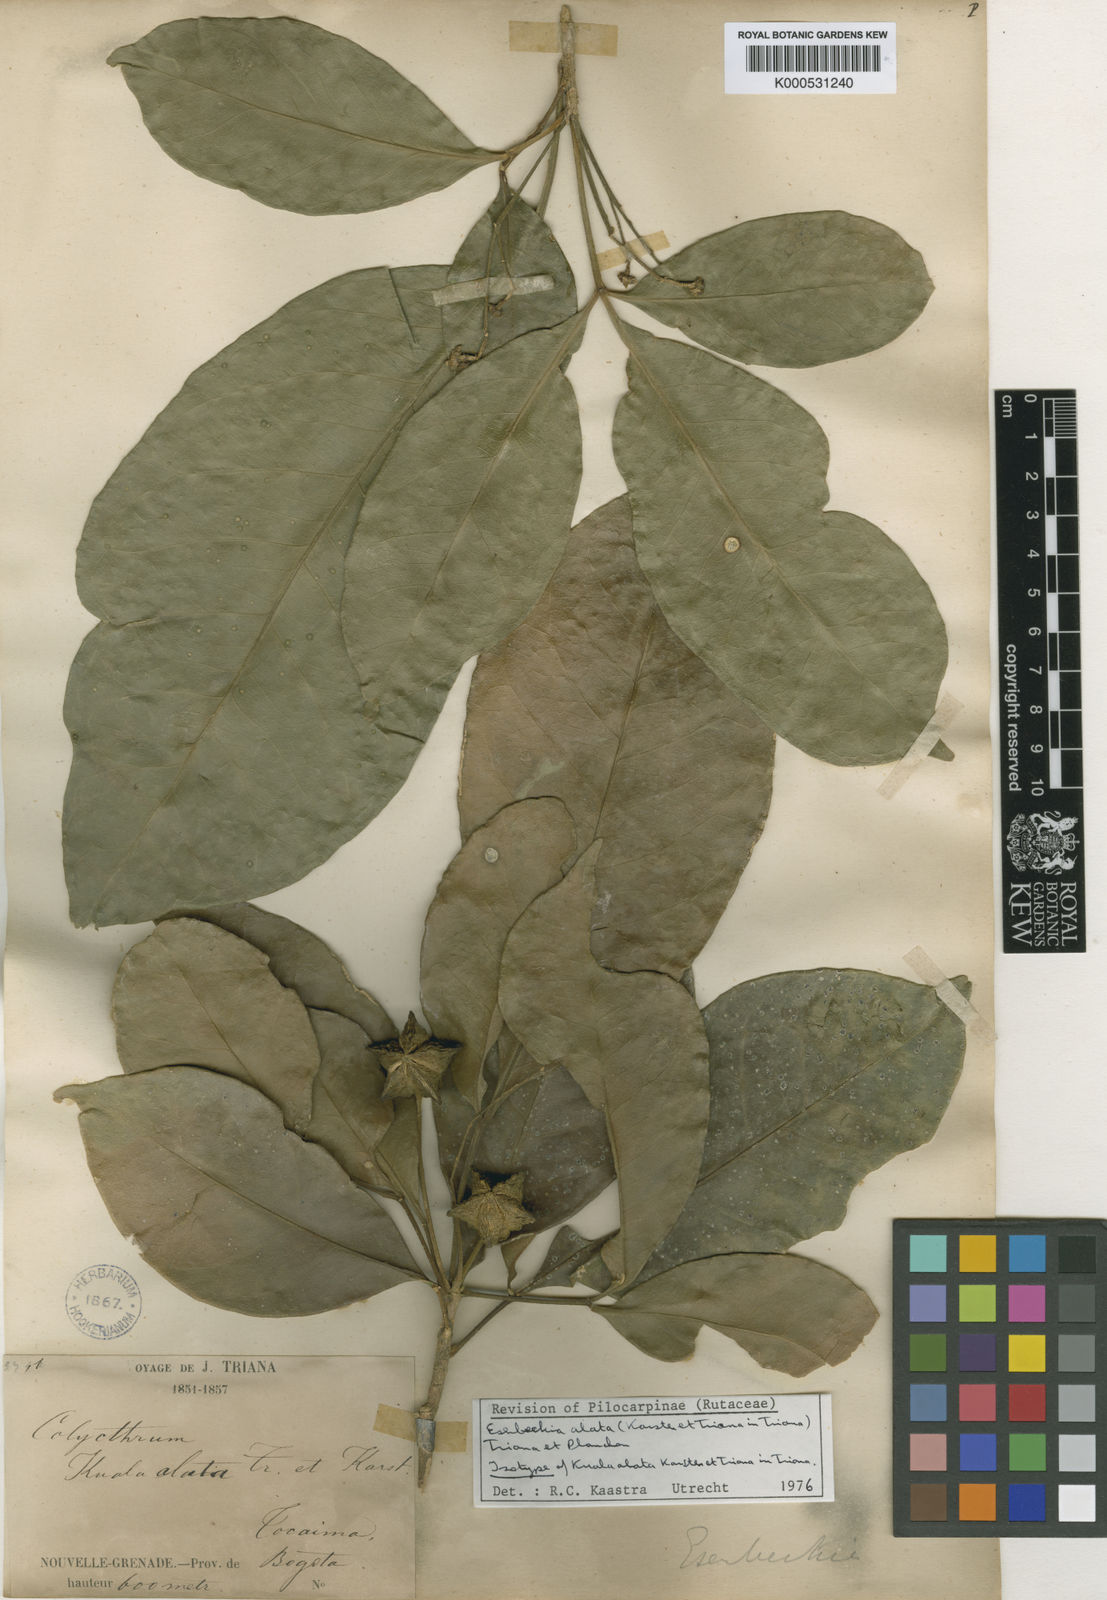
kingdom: Plantae
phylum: Tracheophyta
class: Magnoliopsida
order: Sapindales
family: Rutaceae
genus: Esenbeckia
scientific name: Esenbeckia alata
